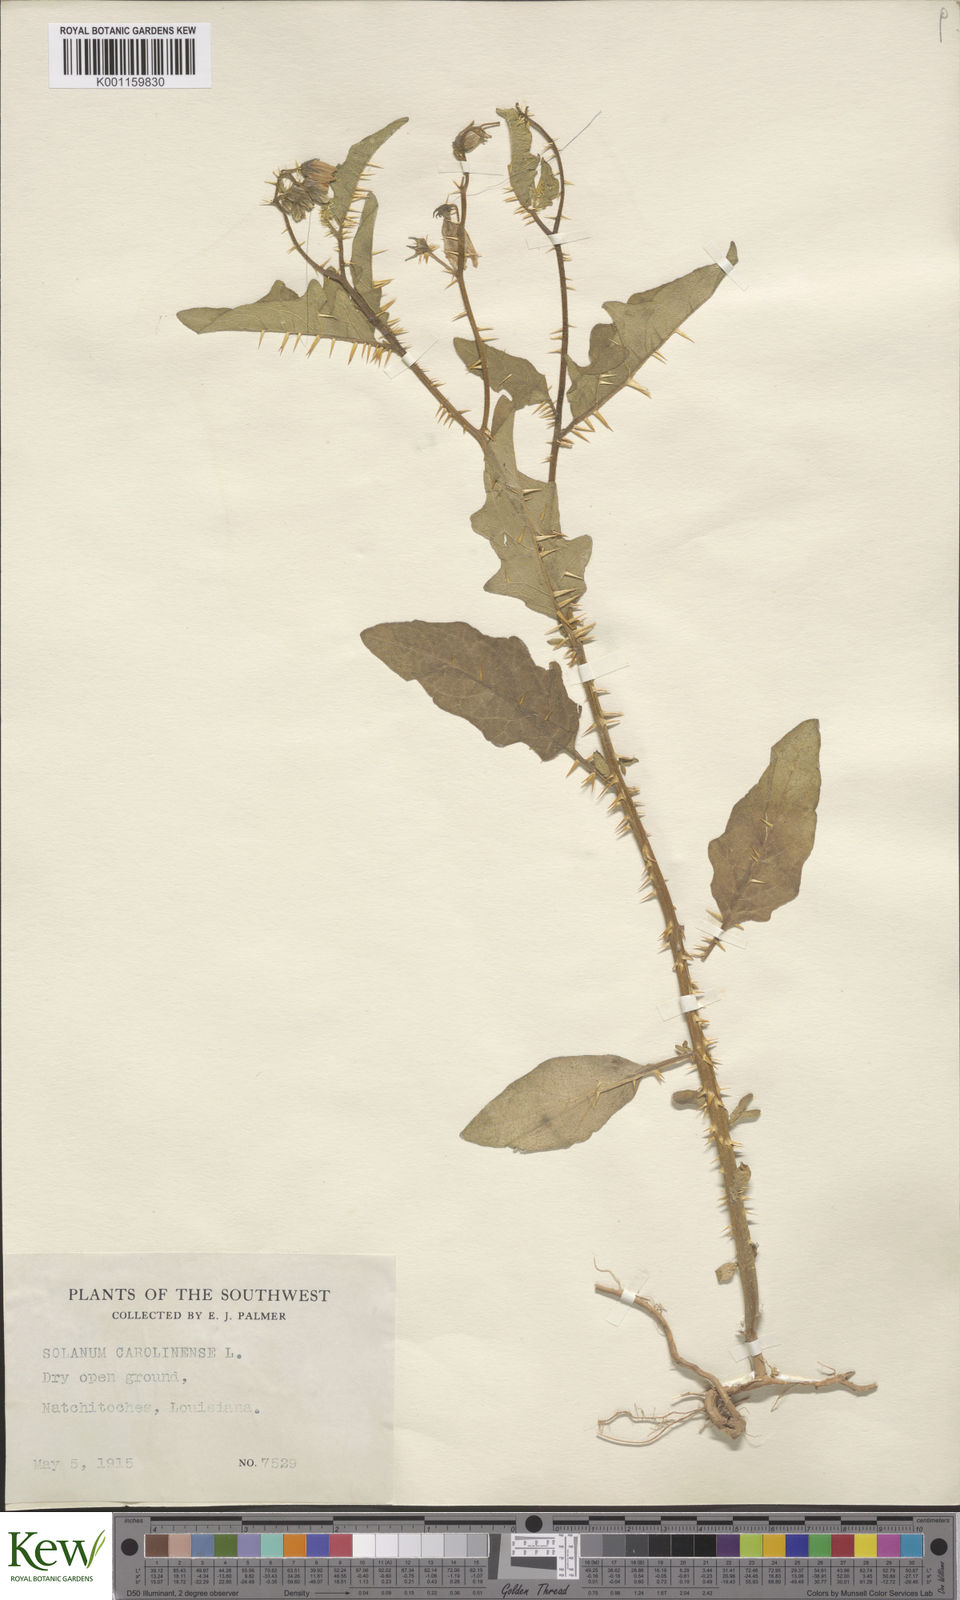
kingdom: Plantae
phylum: Tracheophyta
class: Magnoliopsida
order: Solanales
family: Solanaceae
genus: Solanum
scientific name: Solanum carolinense
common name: Horse-nettle
